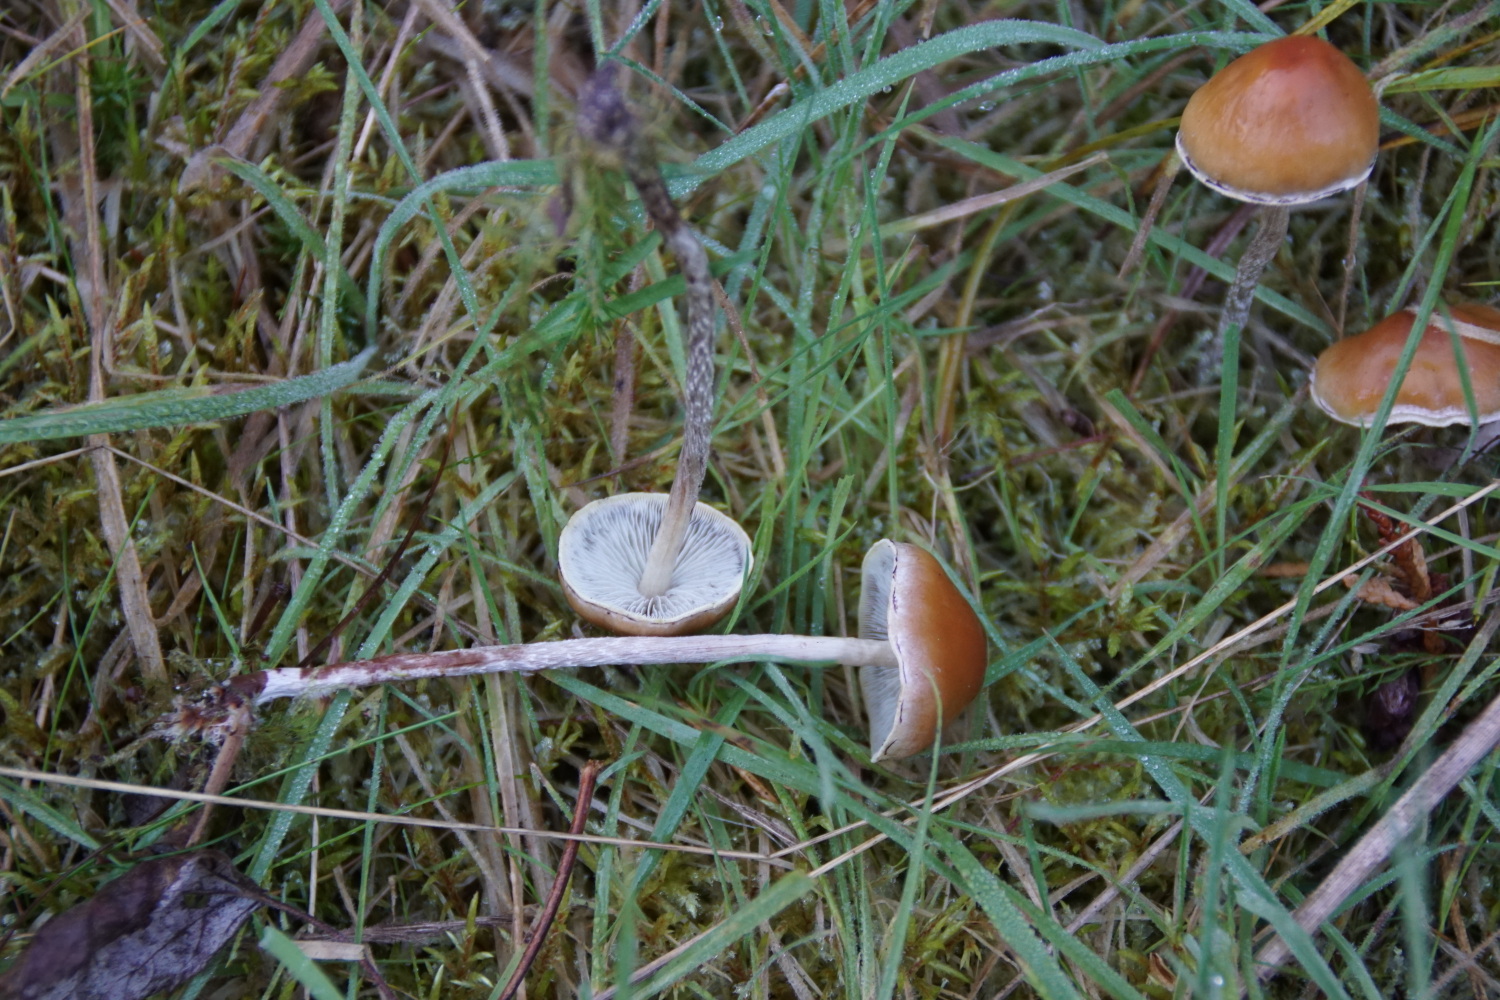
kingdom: Fungi
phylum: Basidiomycota
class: Agaricomycetes
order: Agaricales
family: Strophariaceae
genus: Hypholoma
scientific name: Hypholoma marginatum
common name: enlig svovlhat
